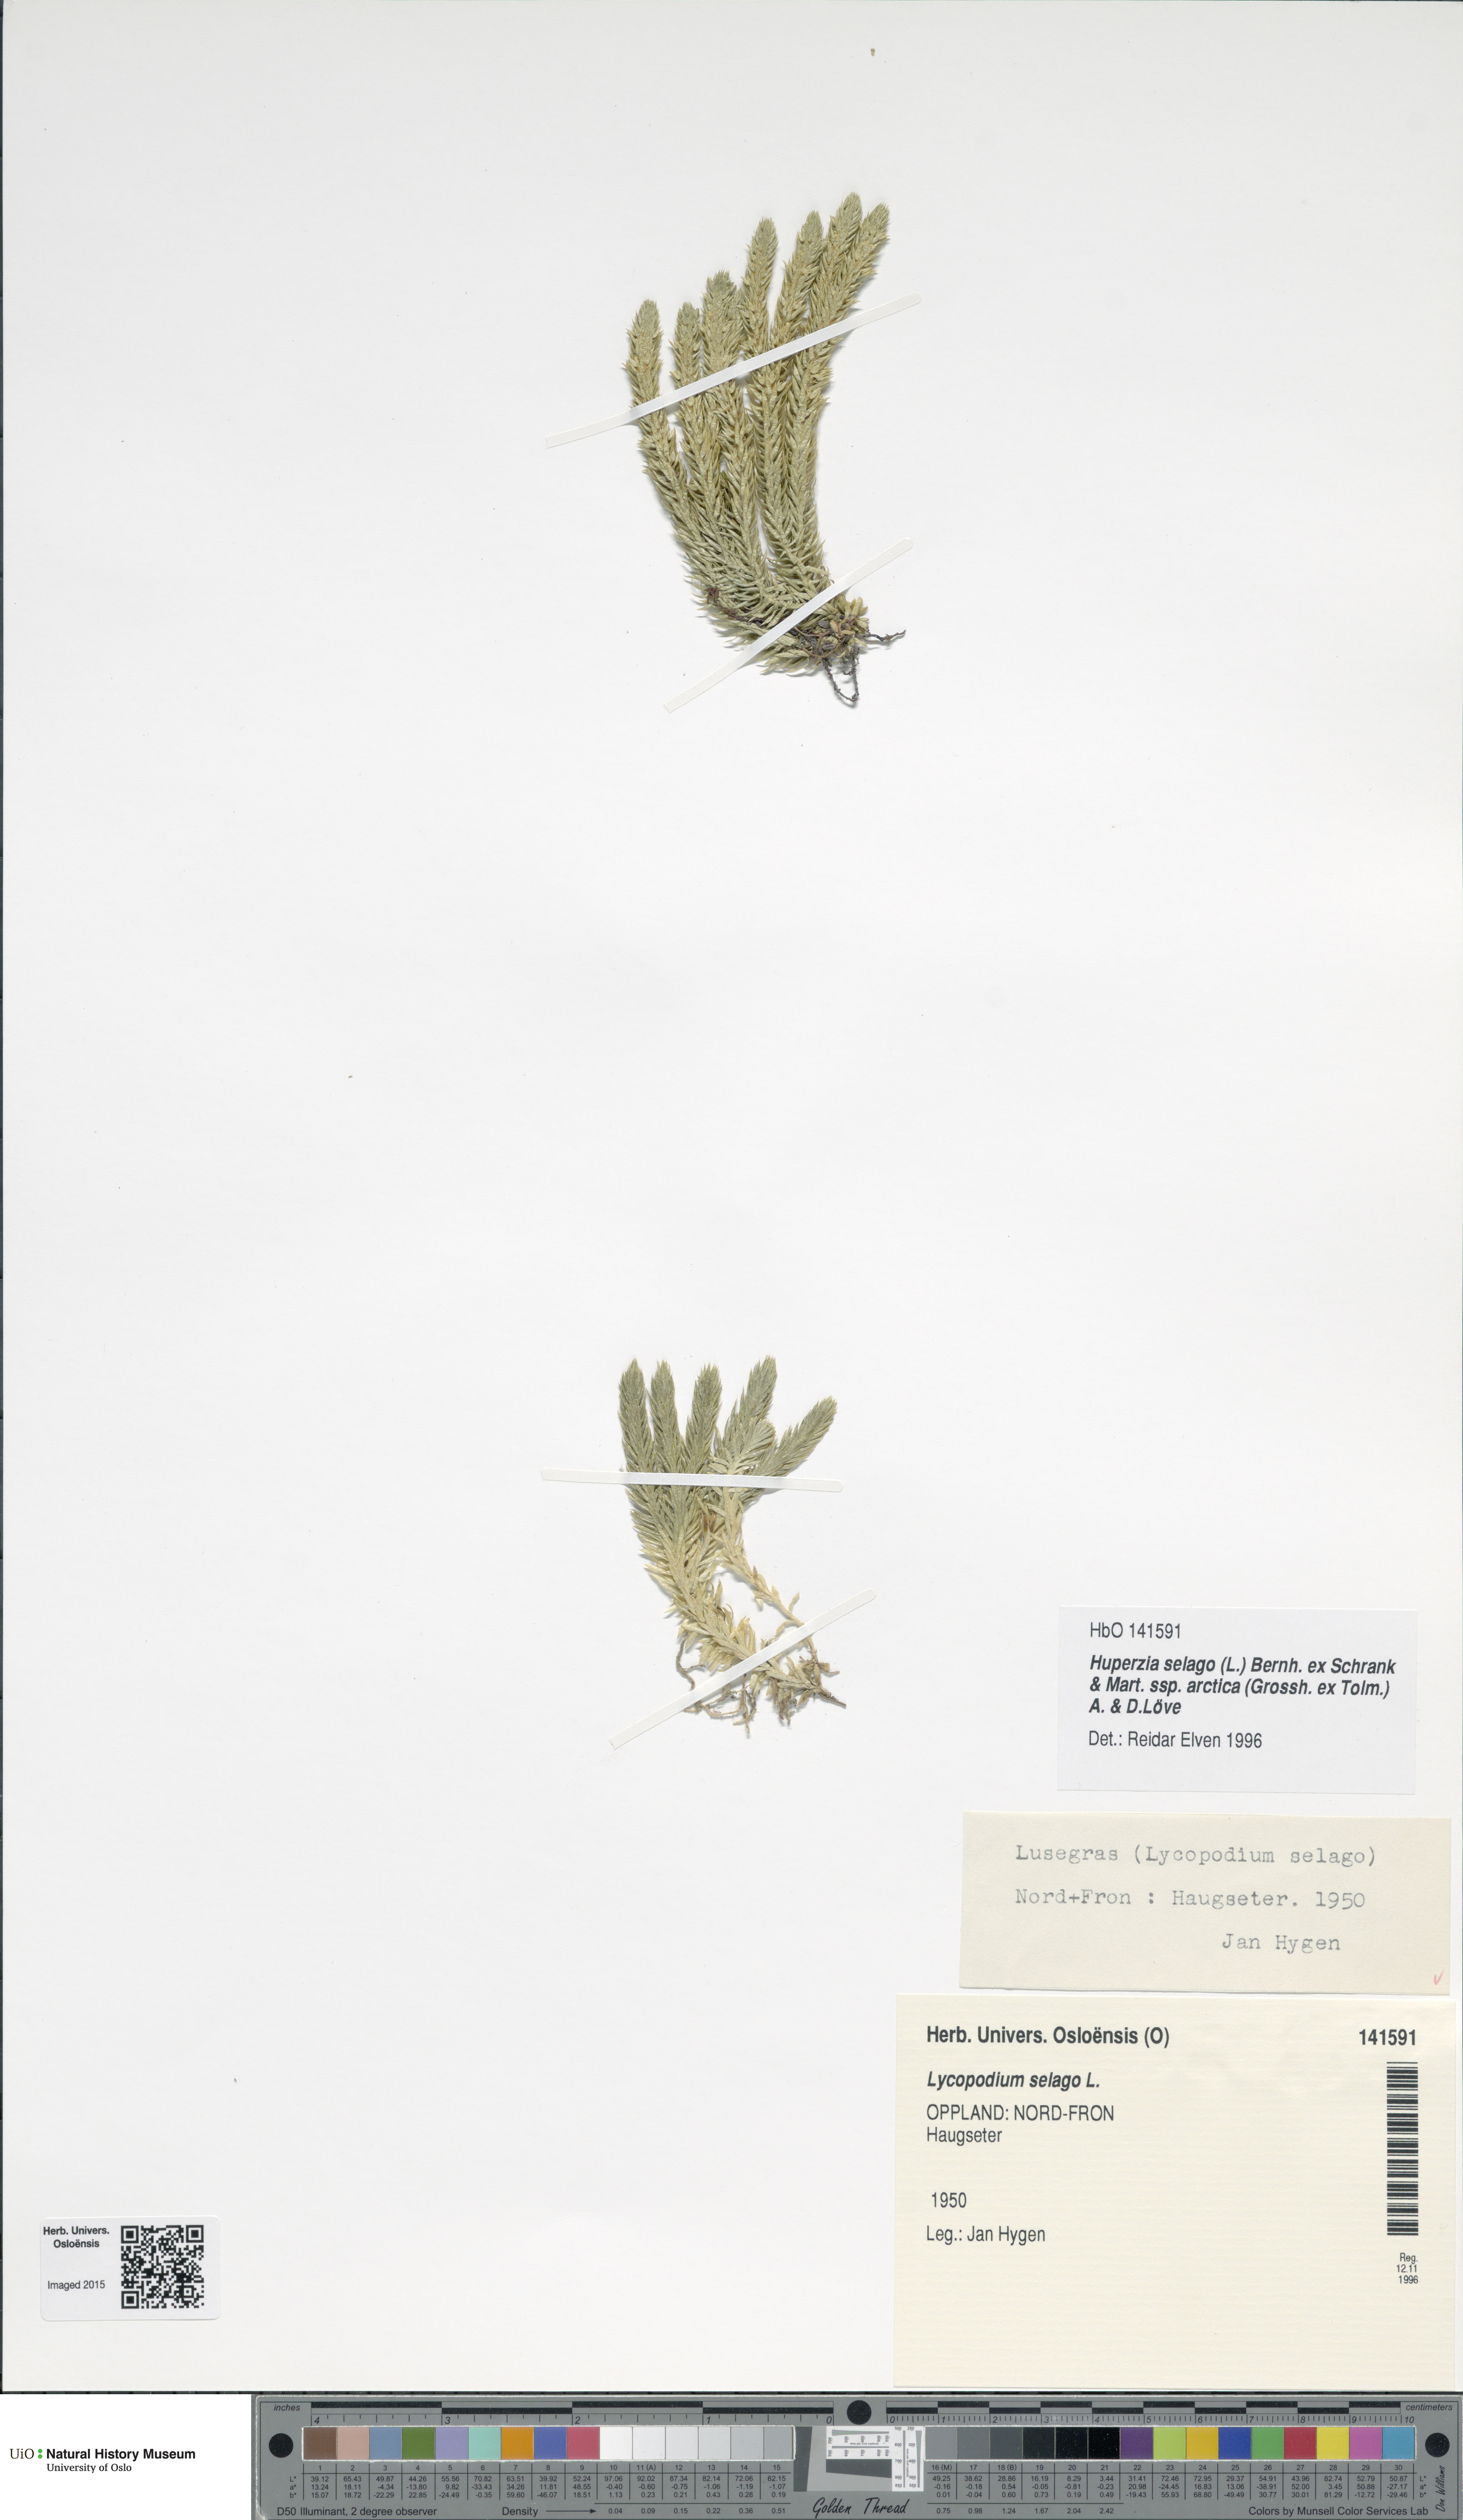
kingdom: Plantae
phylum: Tracheophyta
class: Lycopodiopsida
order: Lycopodiales
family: Lycopodiaceae
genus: Huperzia
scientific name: Huperzia selago
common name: Northern firmoss
